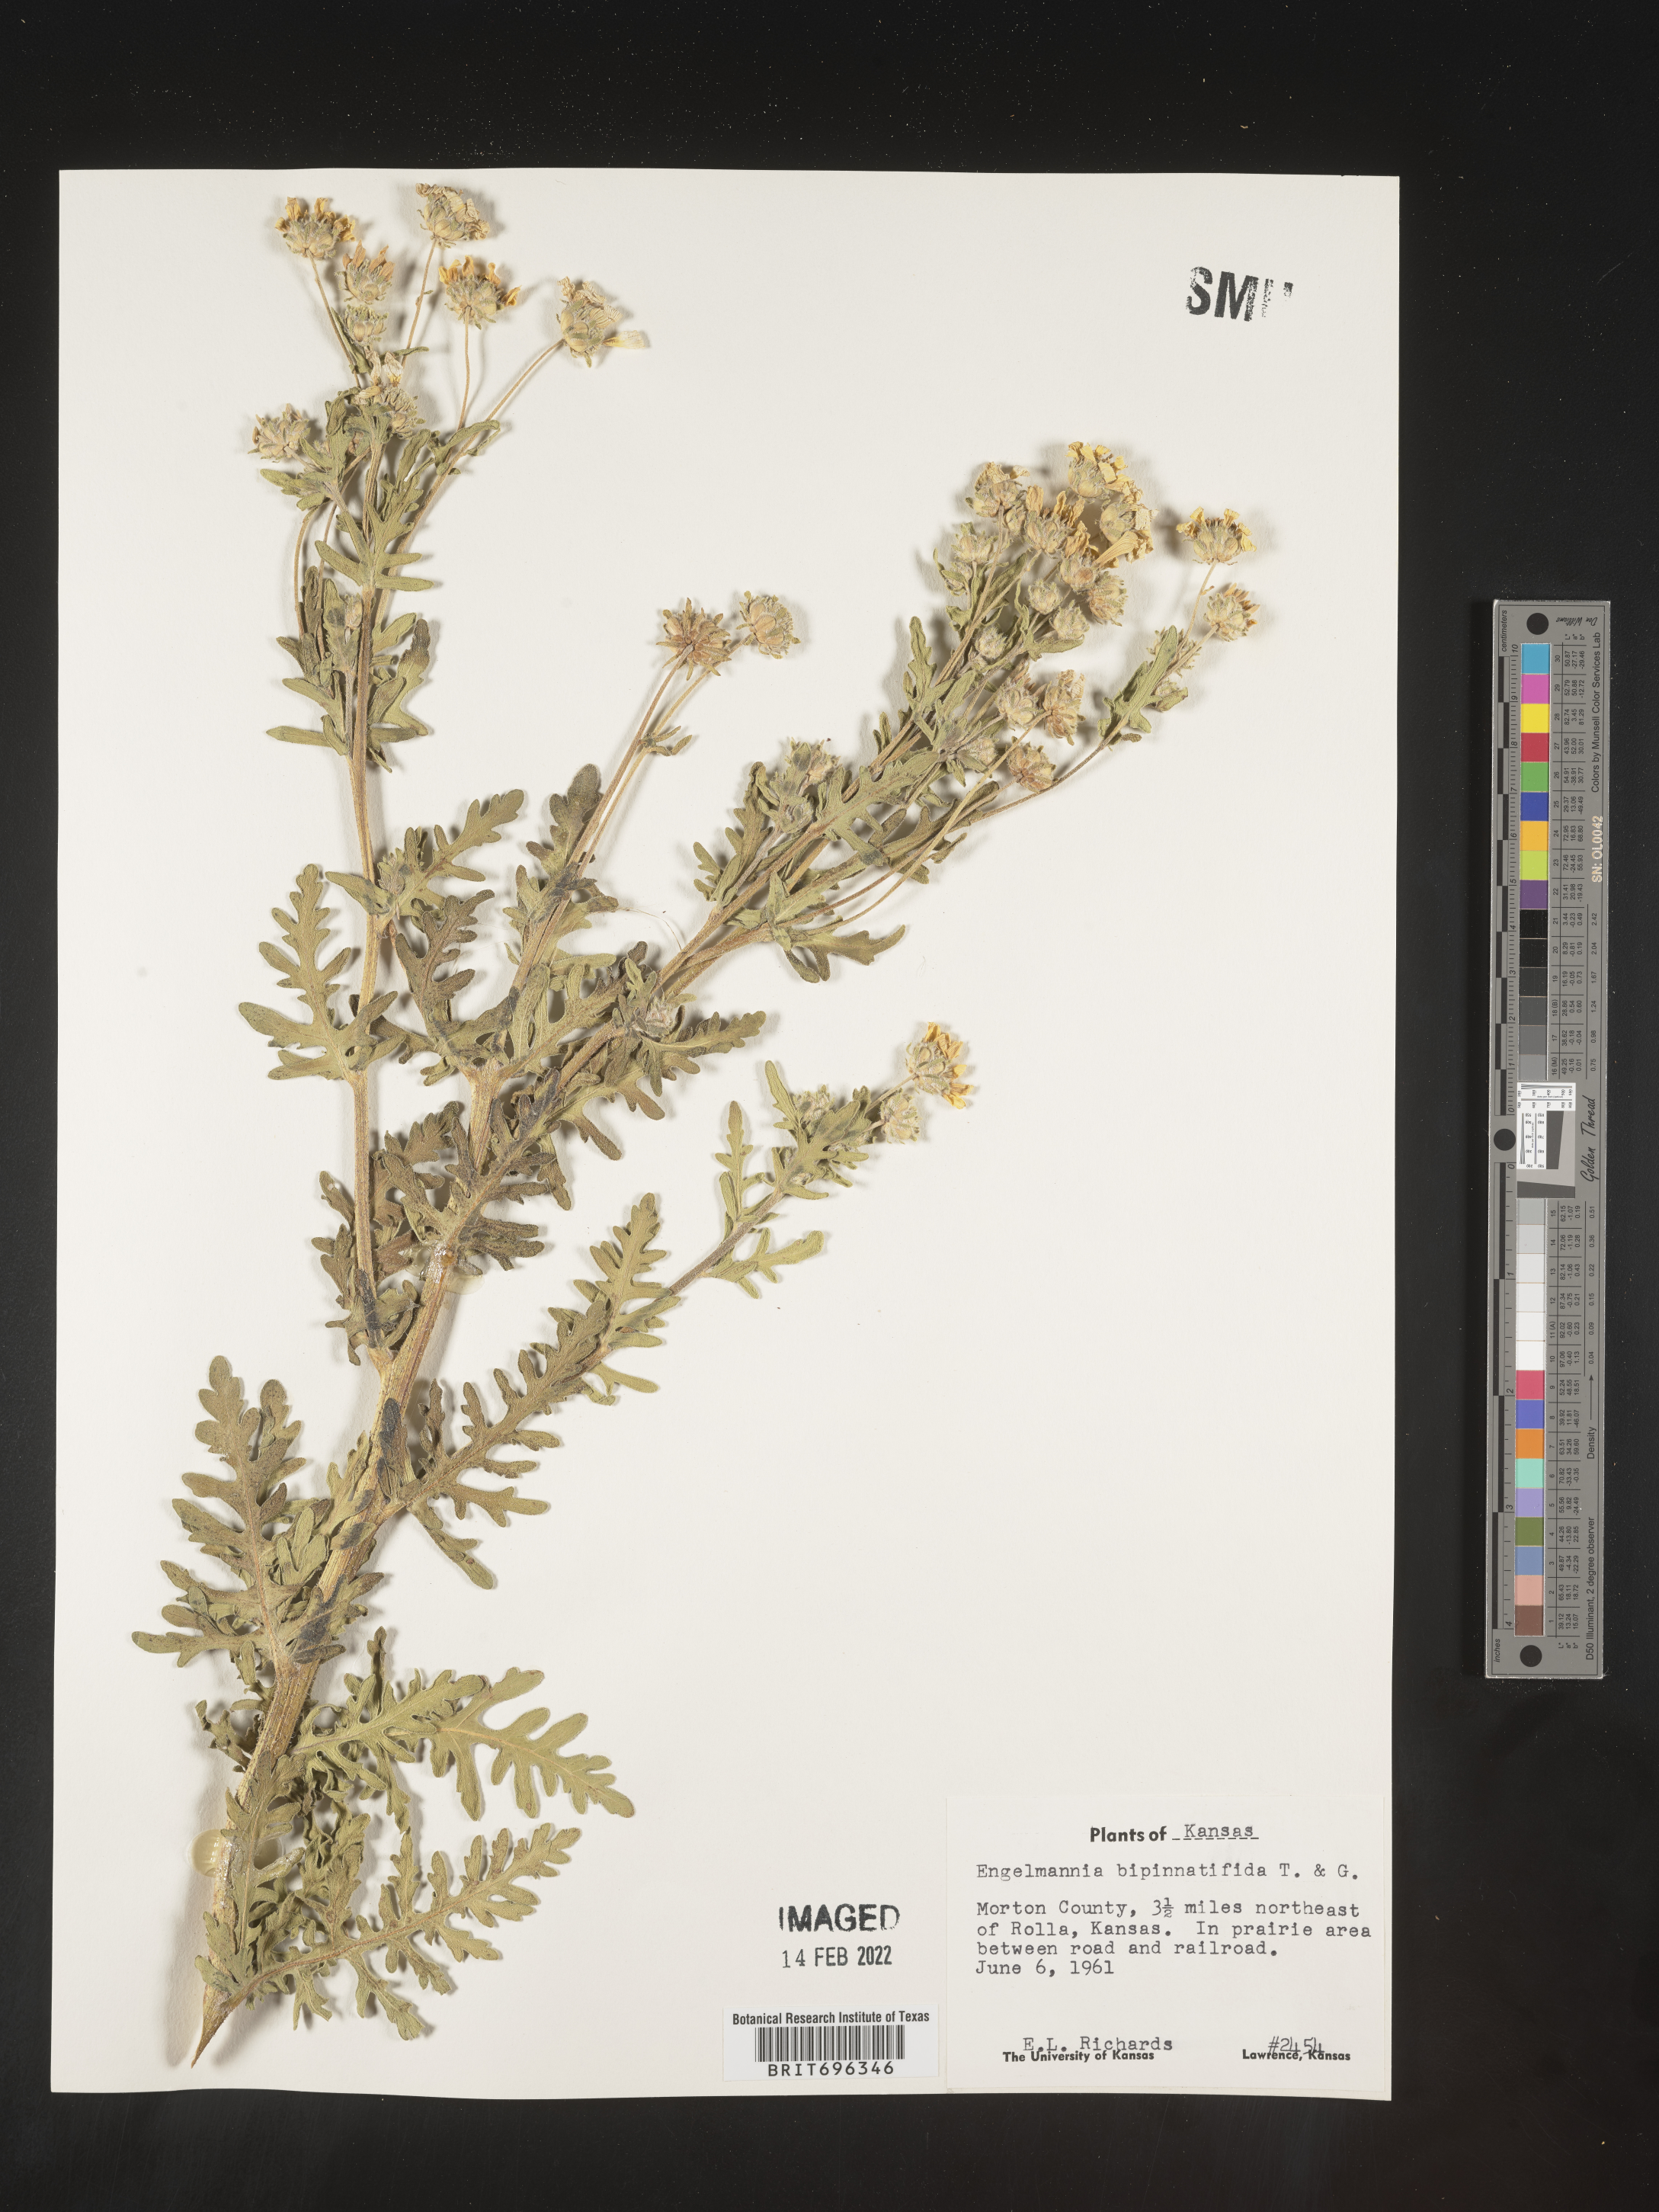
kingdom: Plantae
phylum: Tracheophyta
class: Magnoliopsida
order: Asterales
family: Asteraceae
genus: Engelmannia
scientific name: Engelmannia peristenia
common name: Engelmann's daisy
